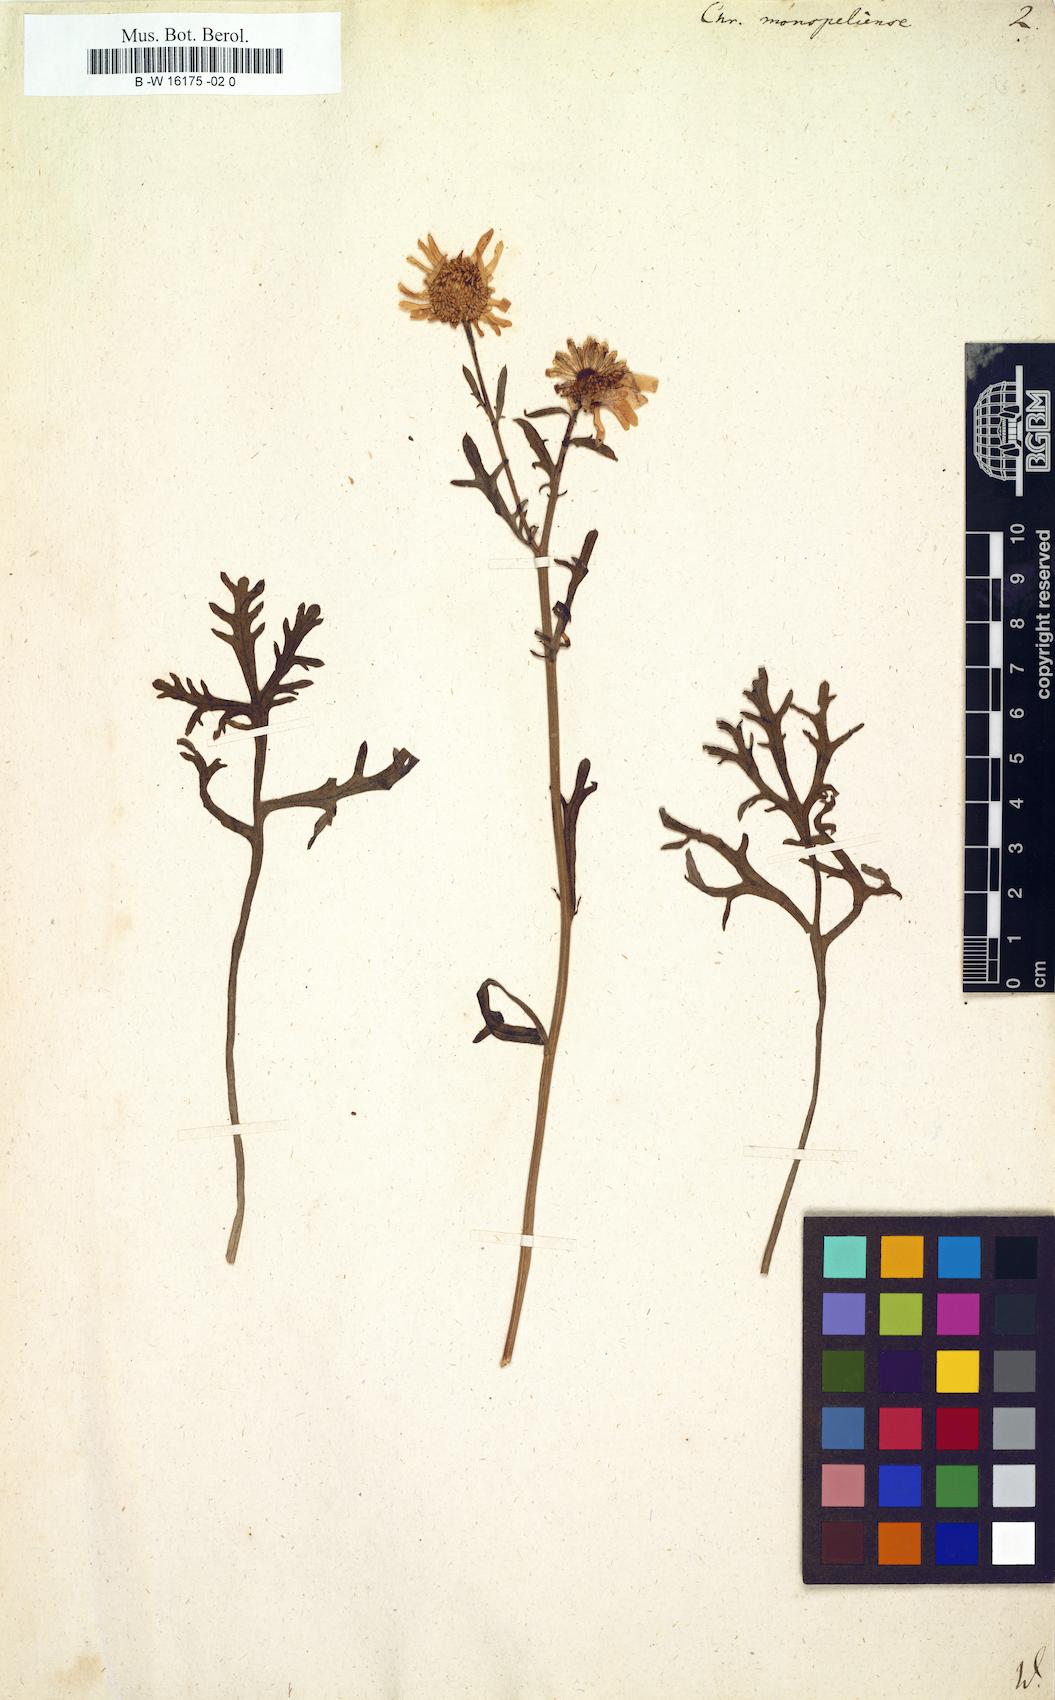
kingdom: Plantae
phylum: Tracheophyta
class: Magnoliopsida
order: Asterales
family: Asteraceae
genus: Chrysanthemum
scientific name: Chrysanthemum monspeliense
